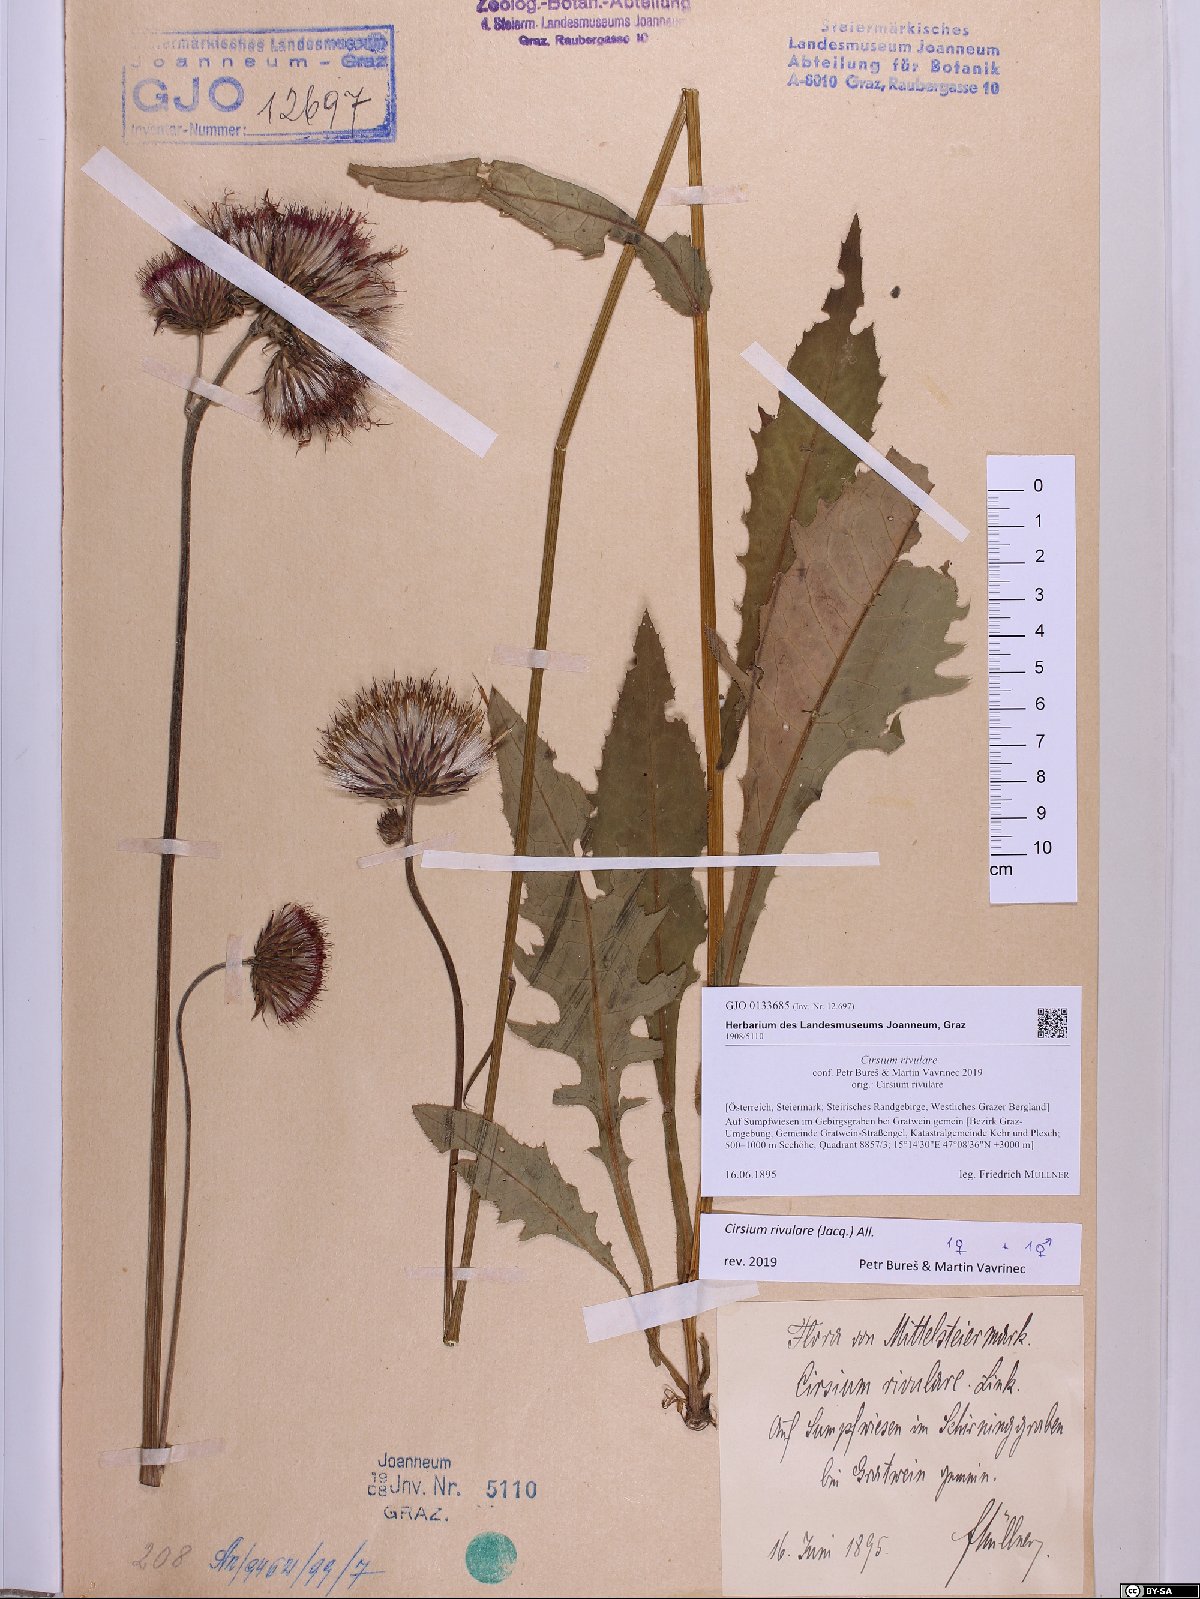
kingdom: Plantae
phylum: Tracheophyta
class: Magnoliopsida
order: Asterales
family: Asteraceae
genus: Cirsium
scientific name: Cirsium rivulare
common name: Brook thistle
